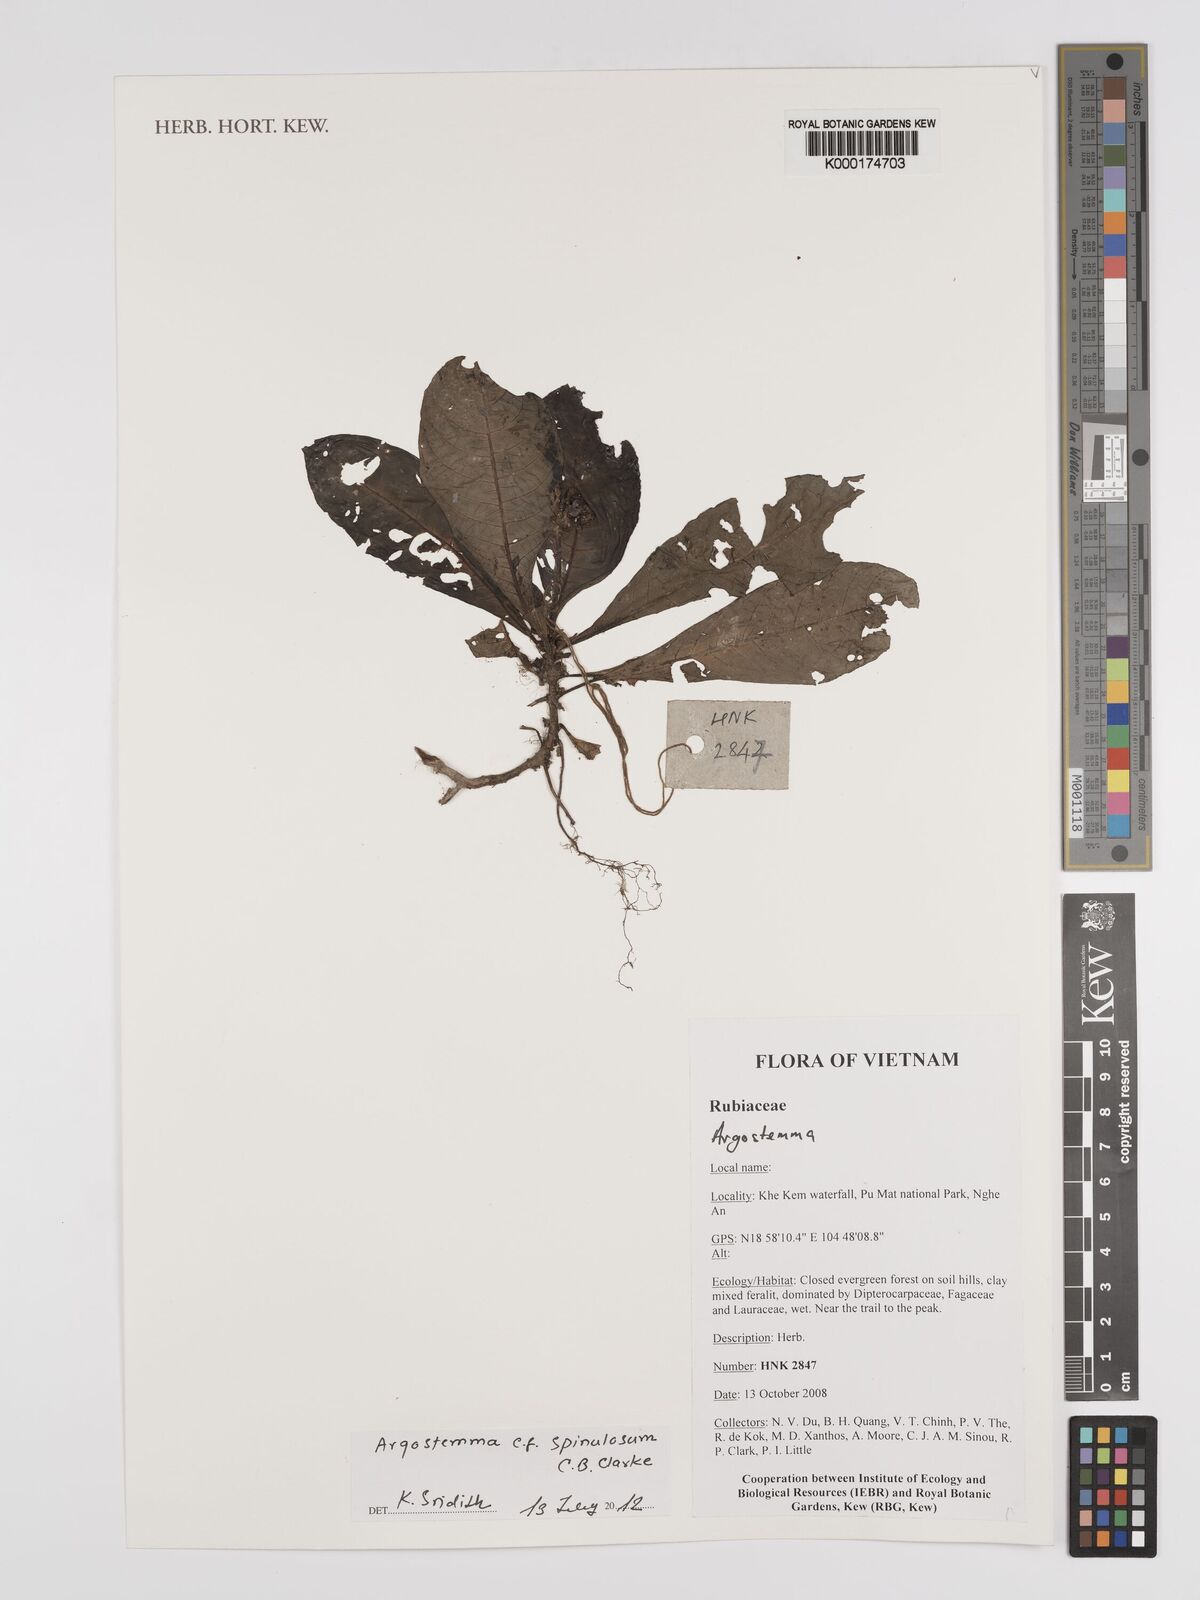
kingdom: Plantae
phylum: Tracheophyta
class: Magnoliopsida
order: Gentianales
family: Rubiaceae
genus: Argostemma
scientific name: Argostemma
